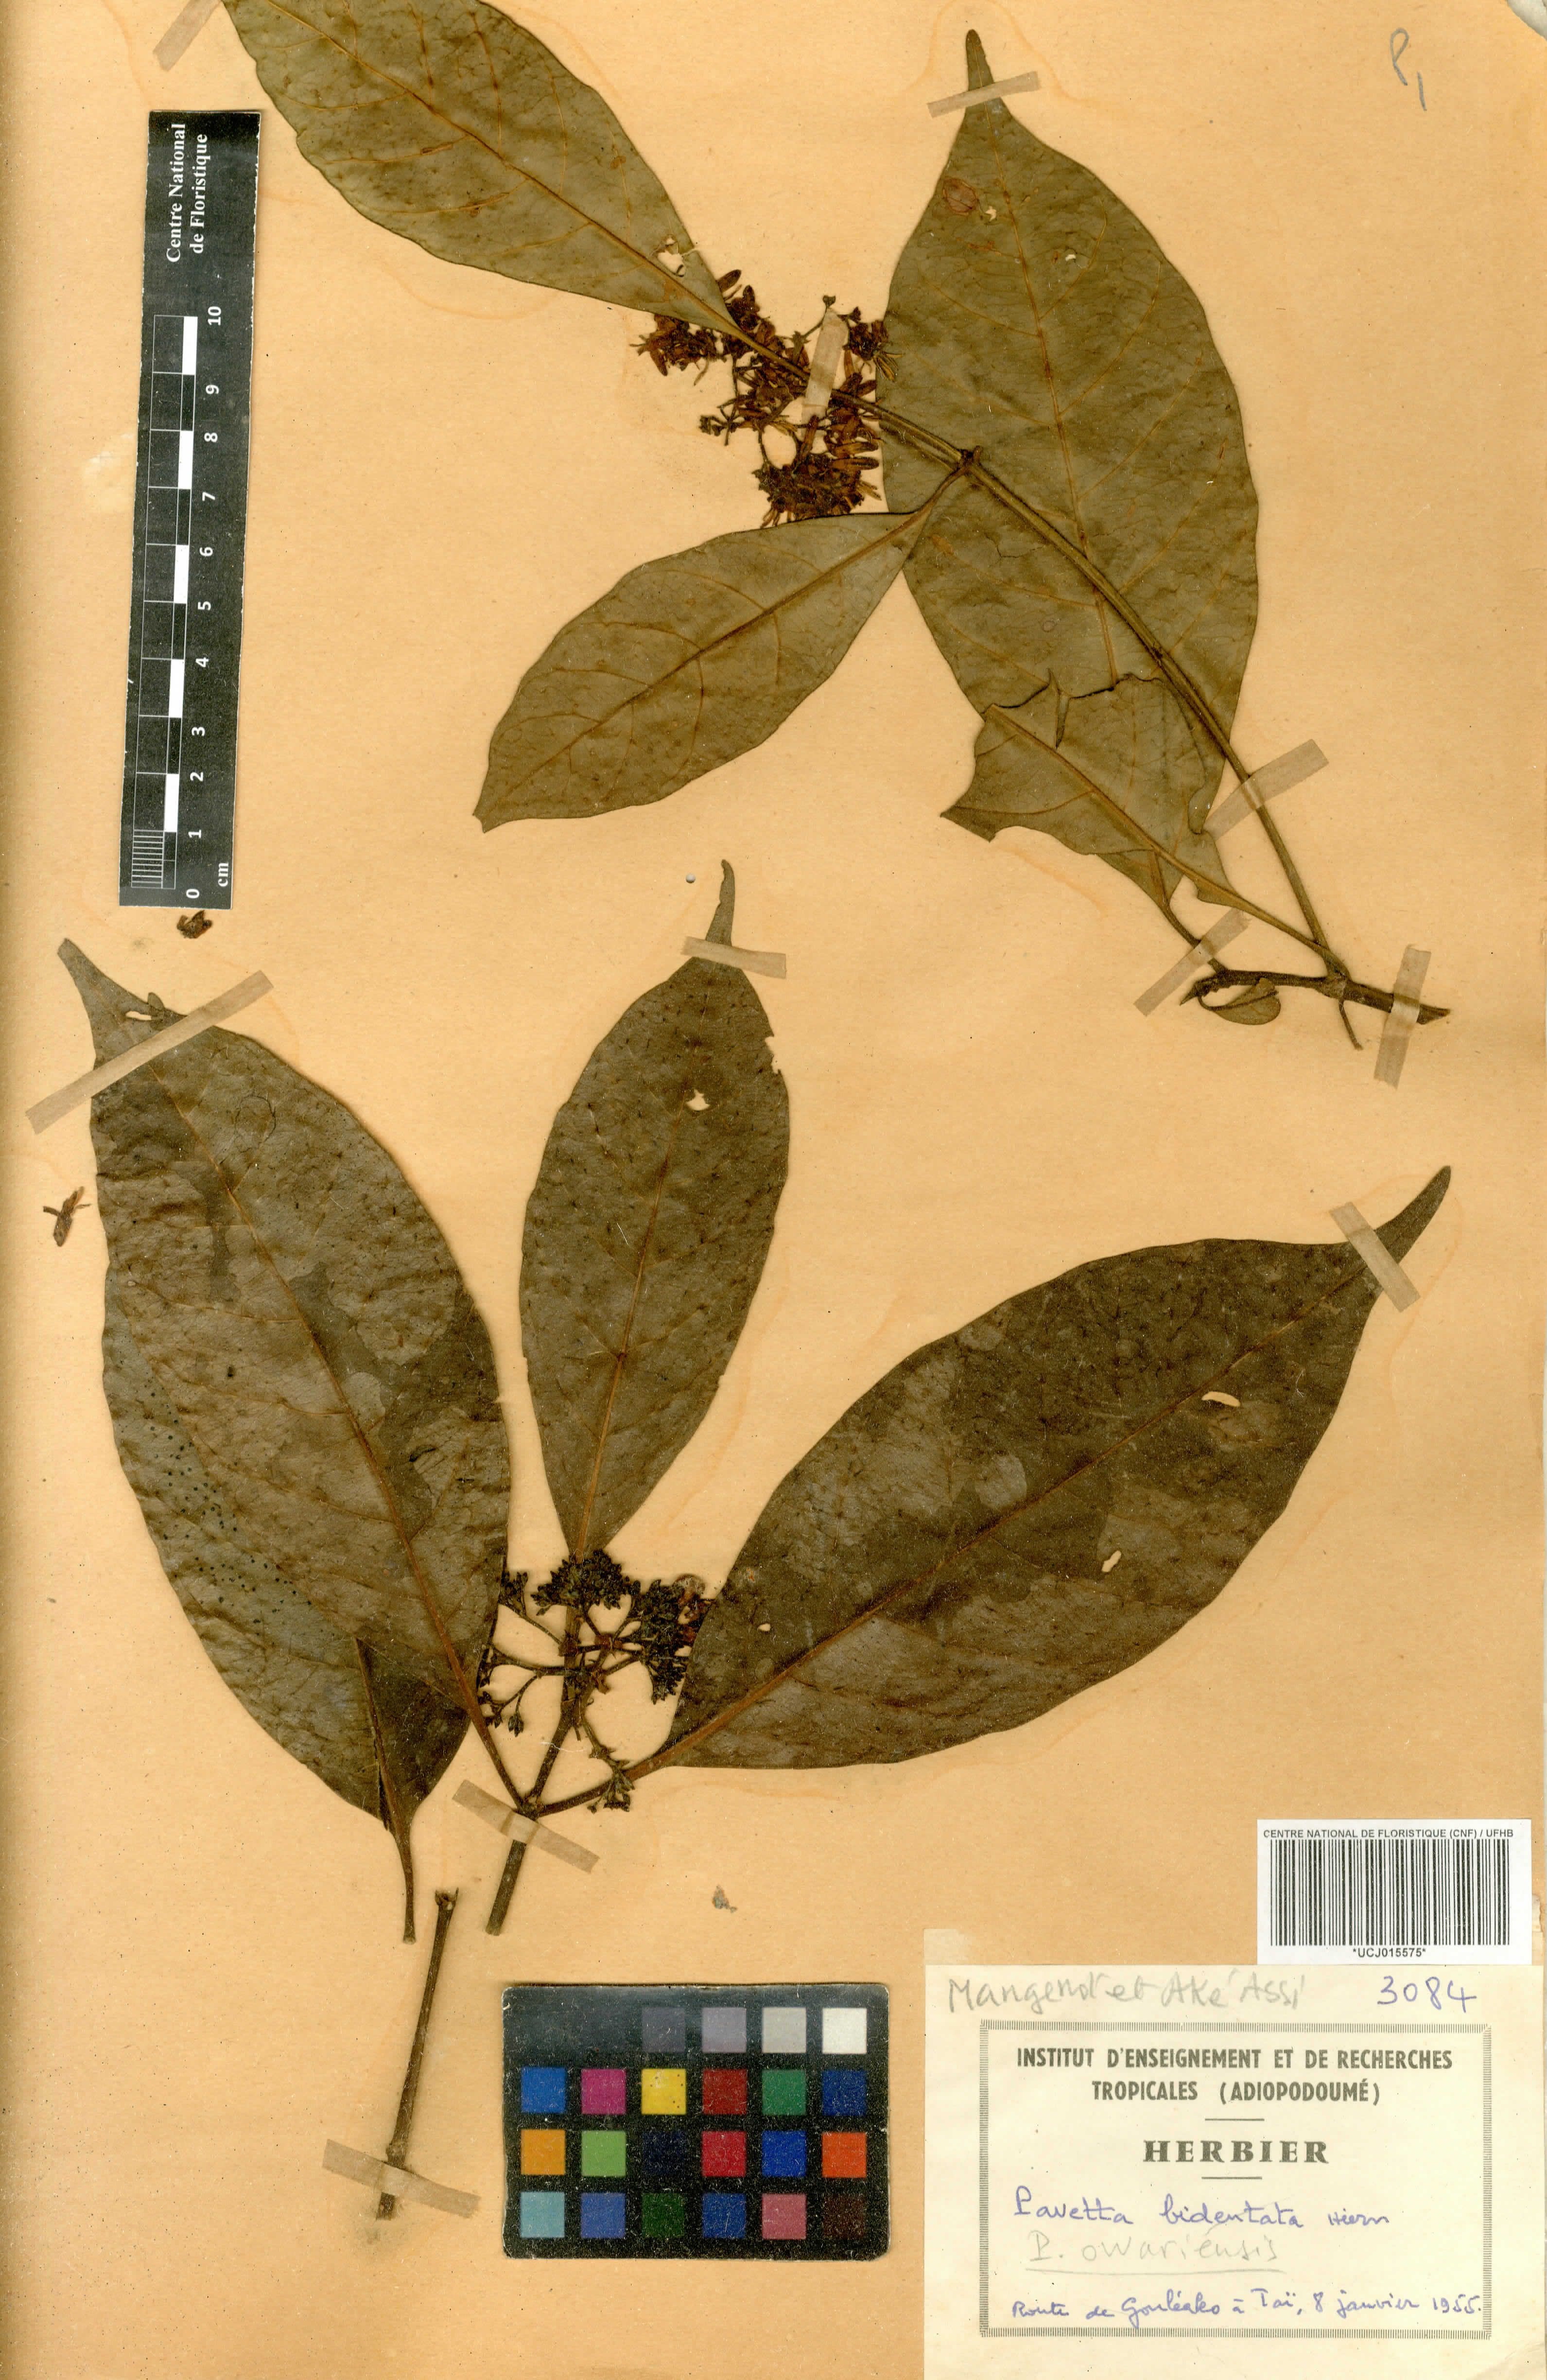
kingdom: Plantae
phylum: Tracheophyta
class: Magnoliopsida
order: Gentianales
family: Rubiaceae
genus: Pavetta
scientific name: Pavetta owariensis
